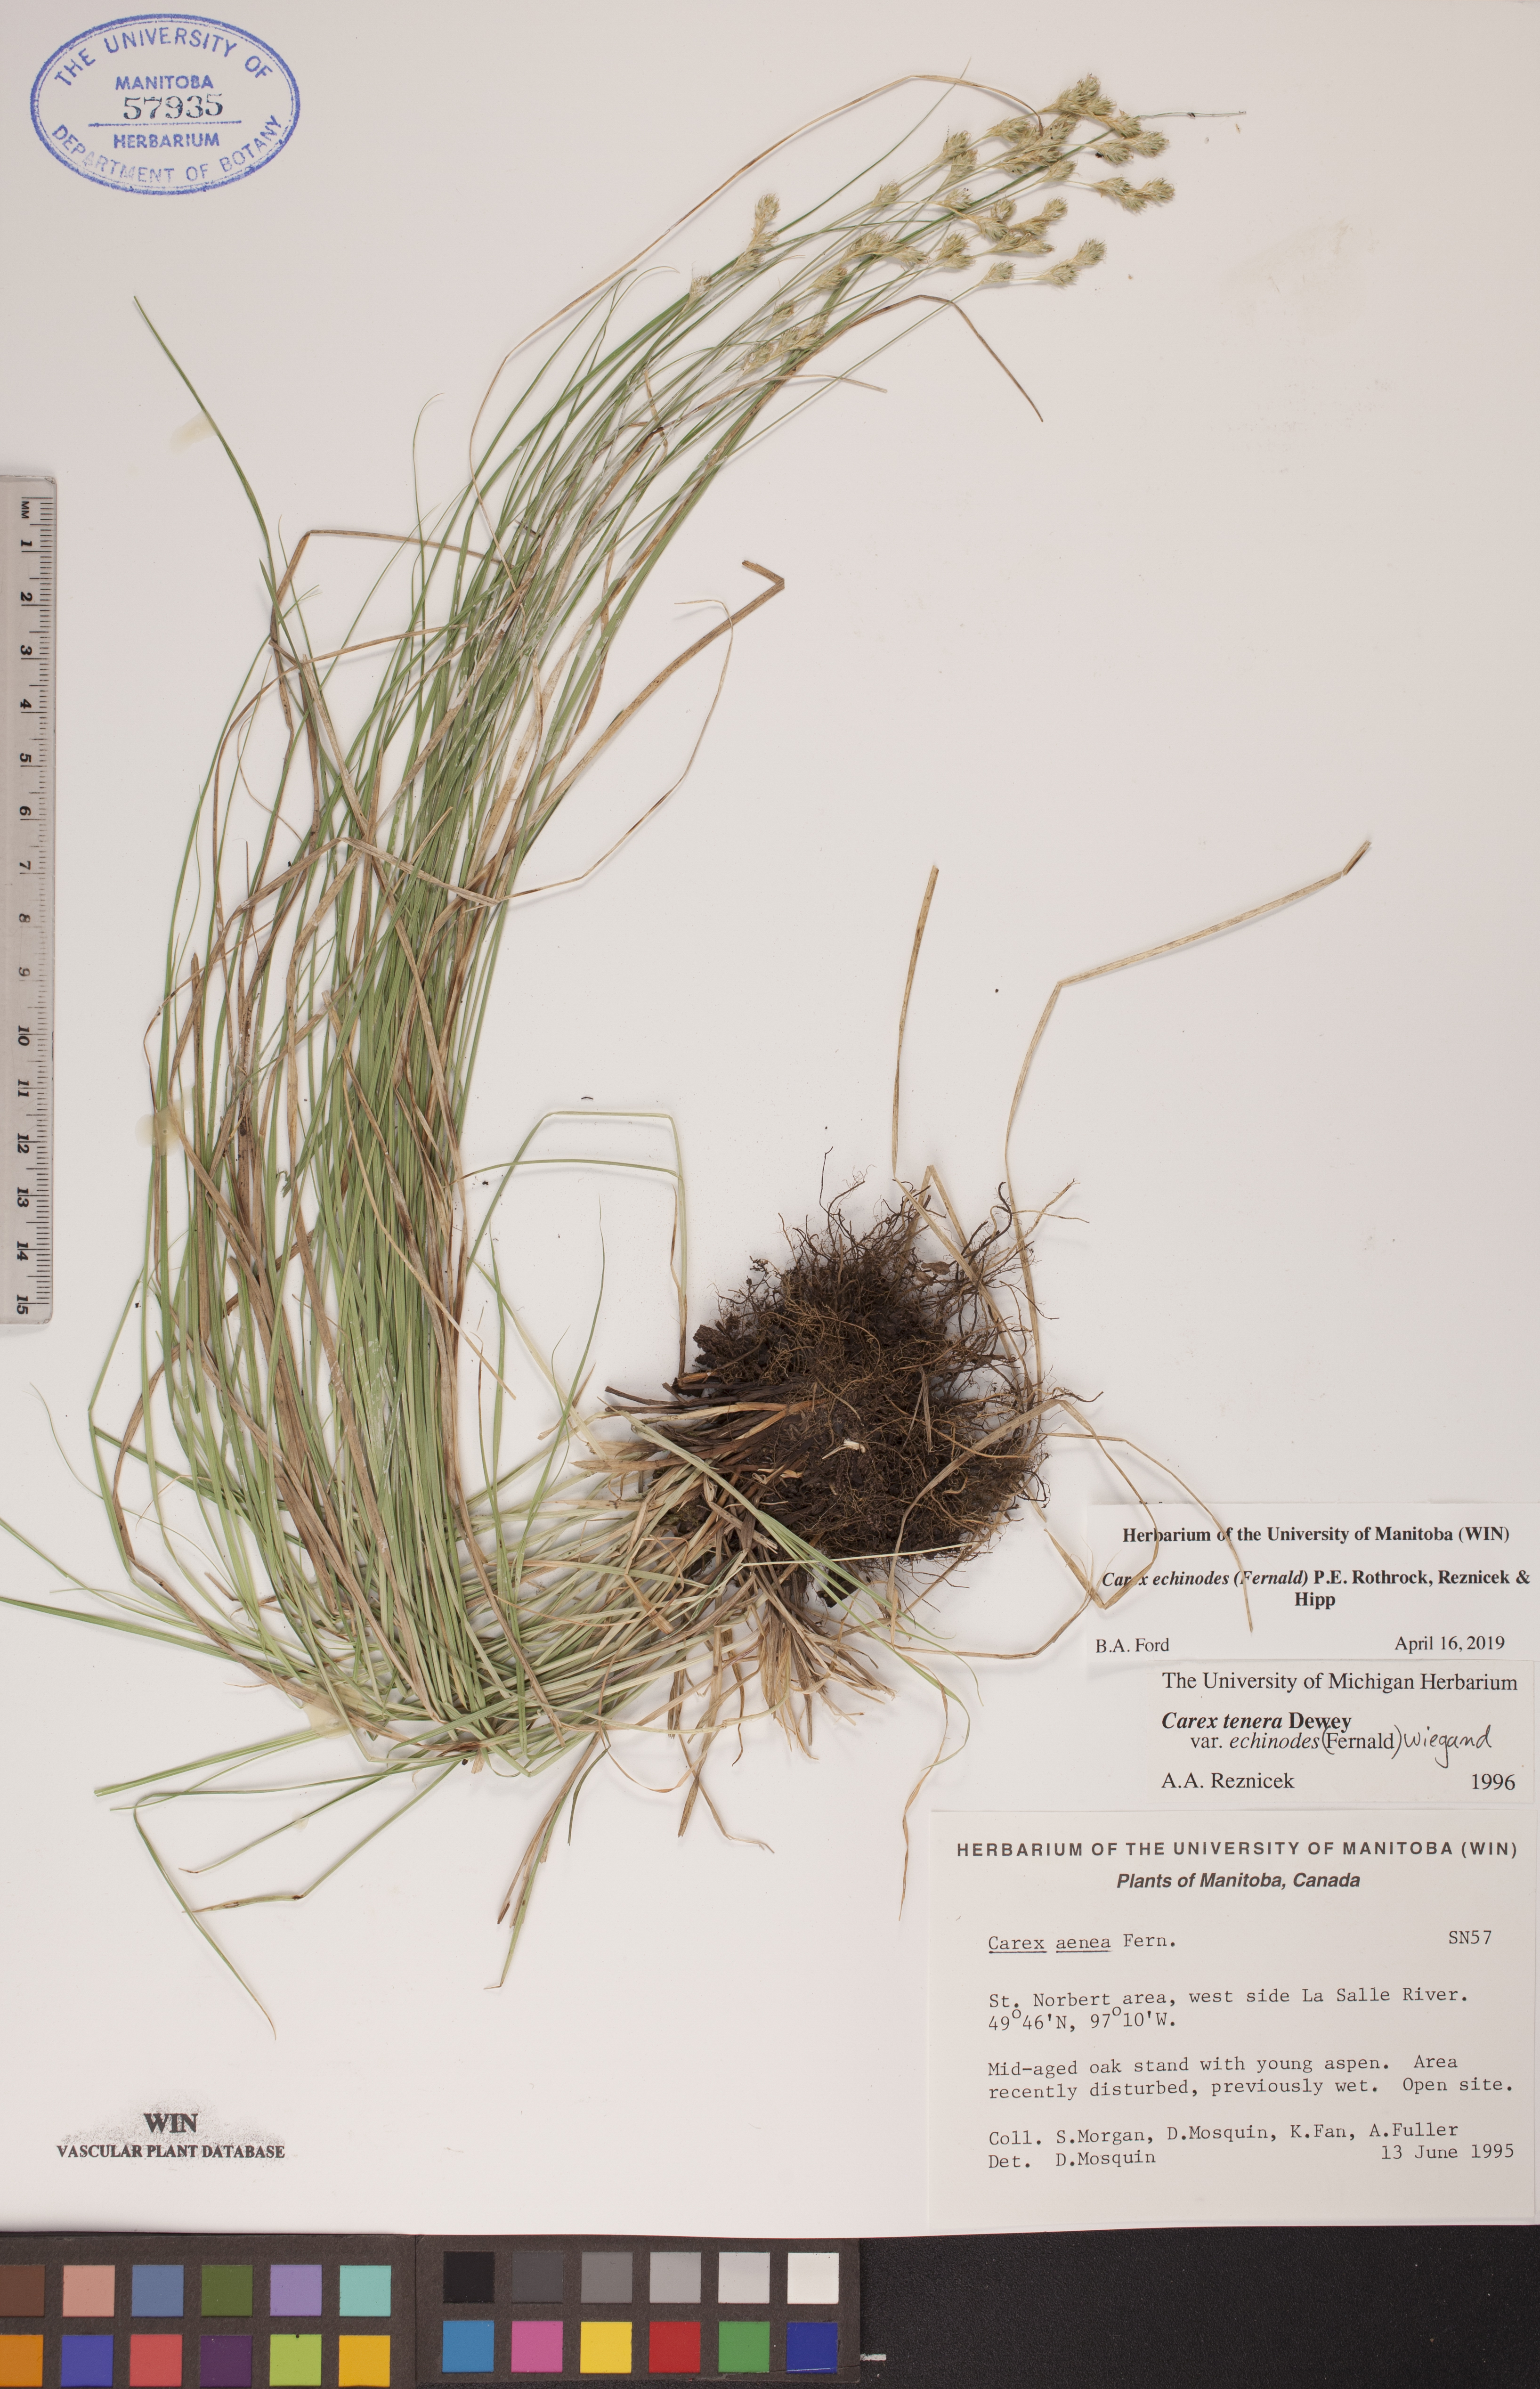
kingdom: Plantae
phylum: Tracheophyta
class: Liliopsida
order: Poales
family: Cyperaceae
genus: Carex
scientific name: Carex echinodes
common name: Marsh straw sedge
